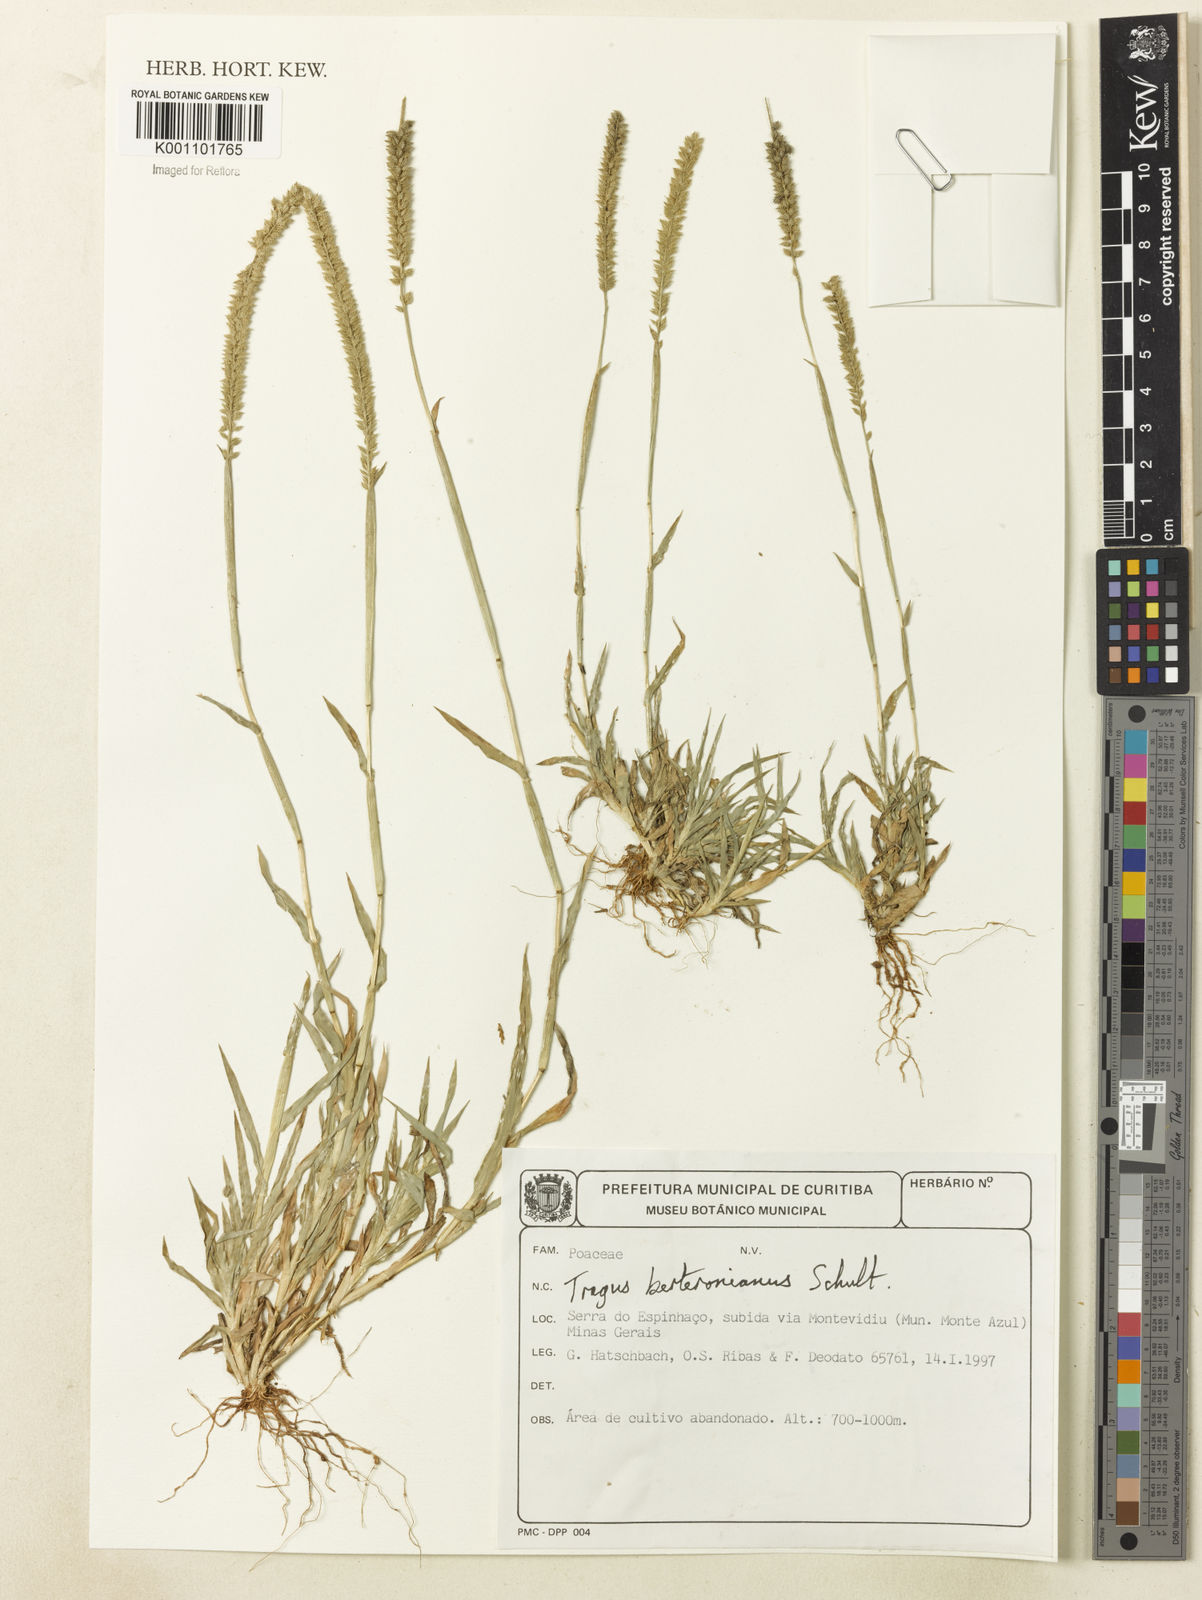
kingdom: Plantae
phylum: Tracheophyta
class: Liliopsida
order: Poales
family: Poaceae
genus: Tragus
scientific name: Tragus berteronianus
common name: African bur-grass
